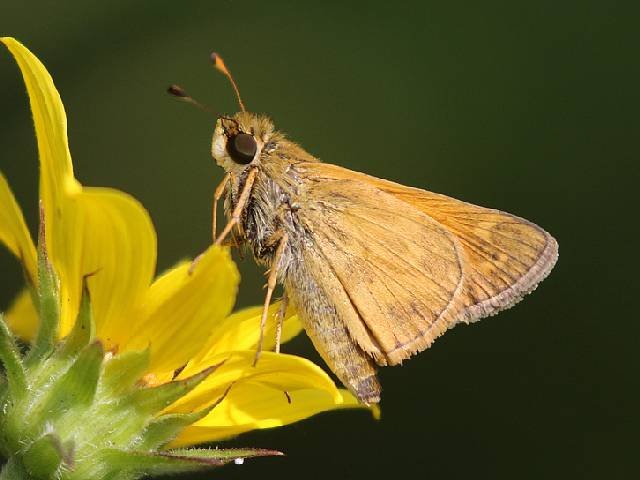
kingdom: Animalia
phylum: Arthropoda
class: Insecta
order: Lepidoptera
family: Hesperiidae
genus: Atalopedes
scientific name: Atalopedes campestris
